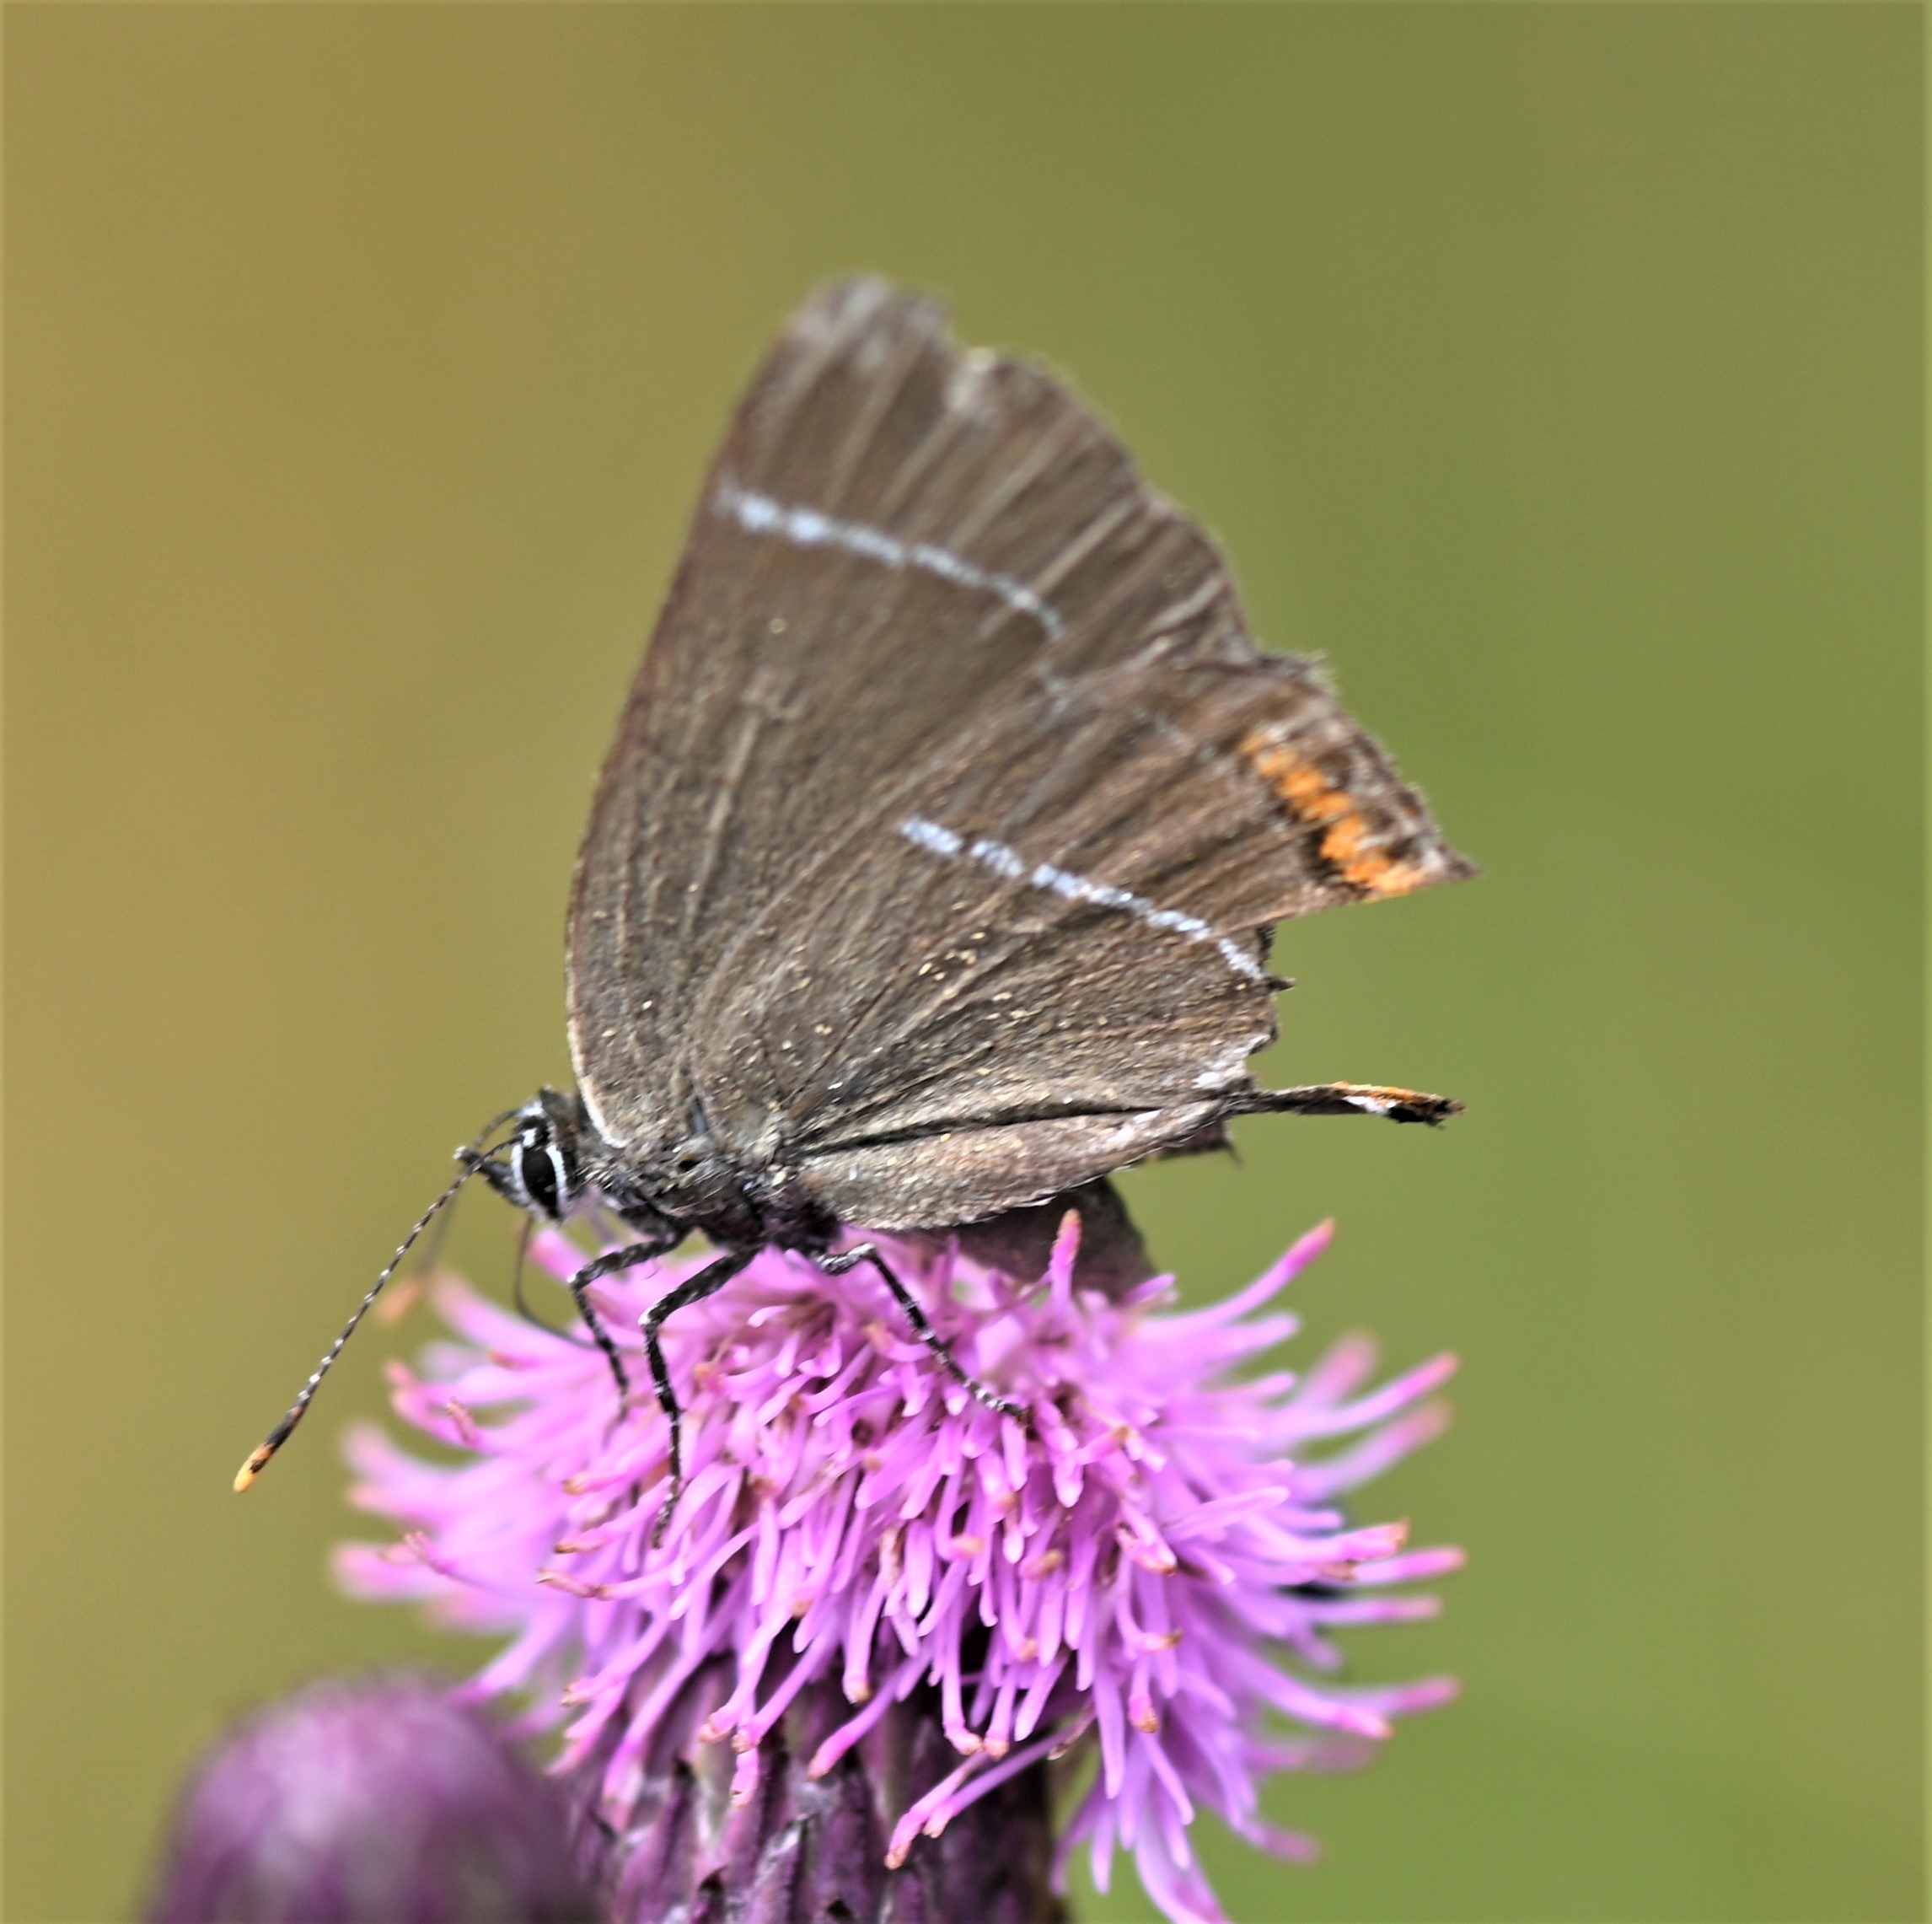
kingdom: Animalia
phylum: Arthropoda
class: Insecta
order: Lepidoptera
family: Lycaenidae
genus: Satyrium
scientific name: Satyrium w-album
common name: Det hvide W
